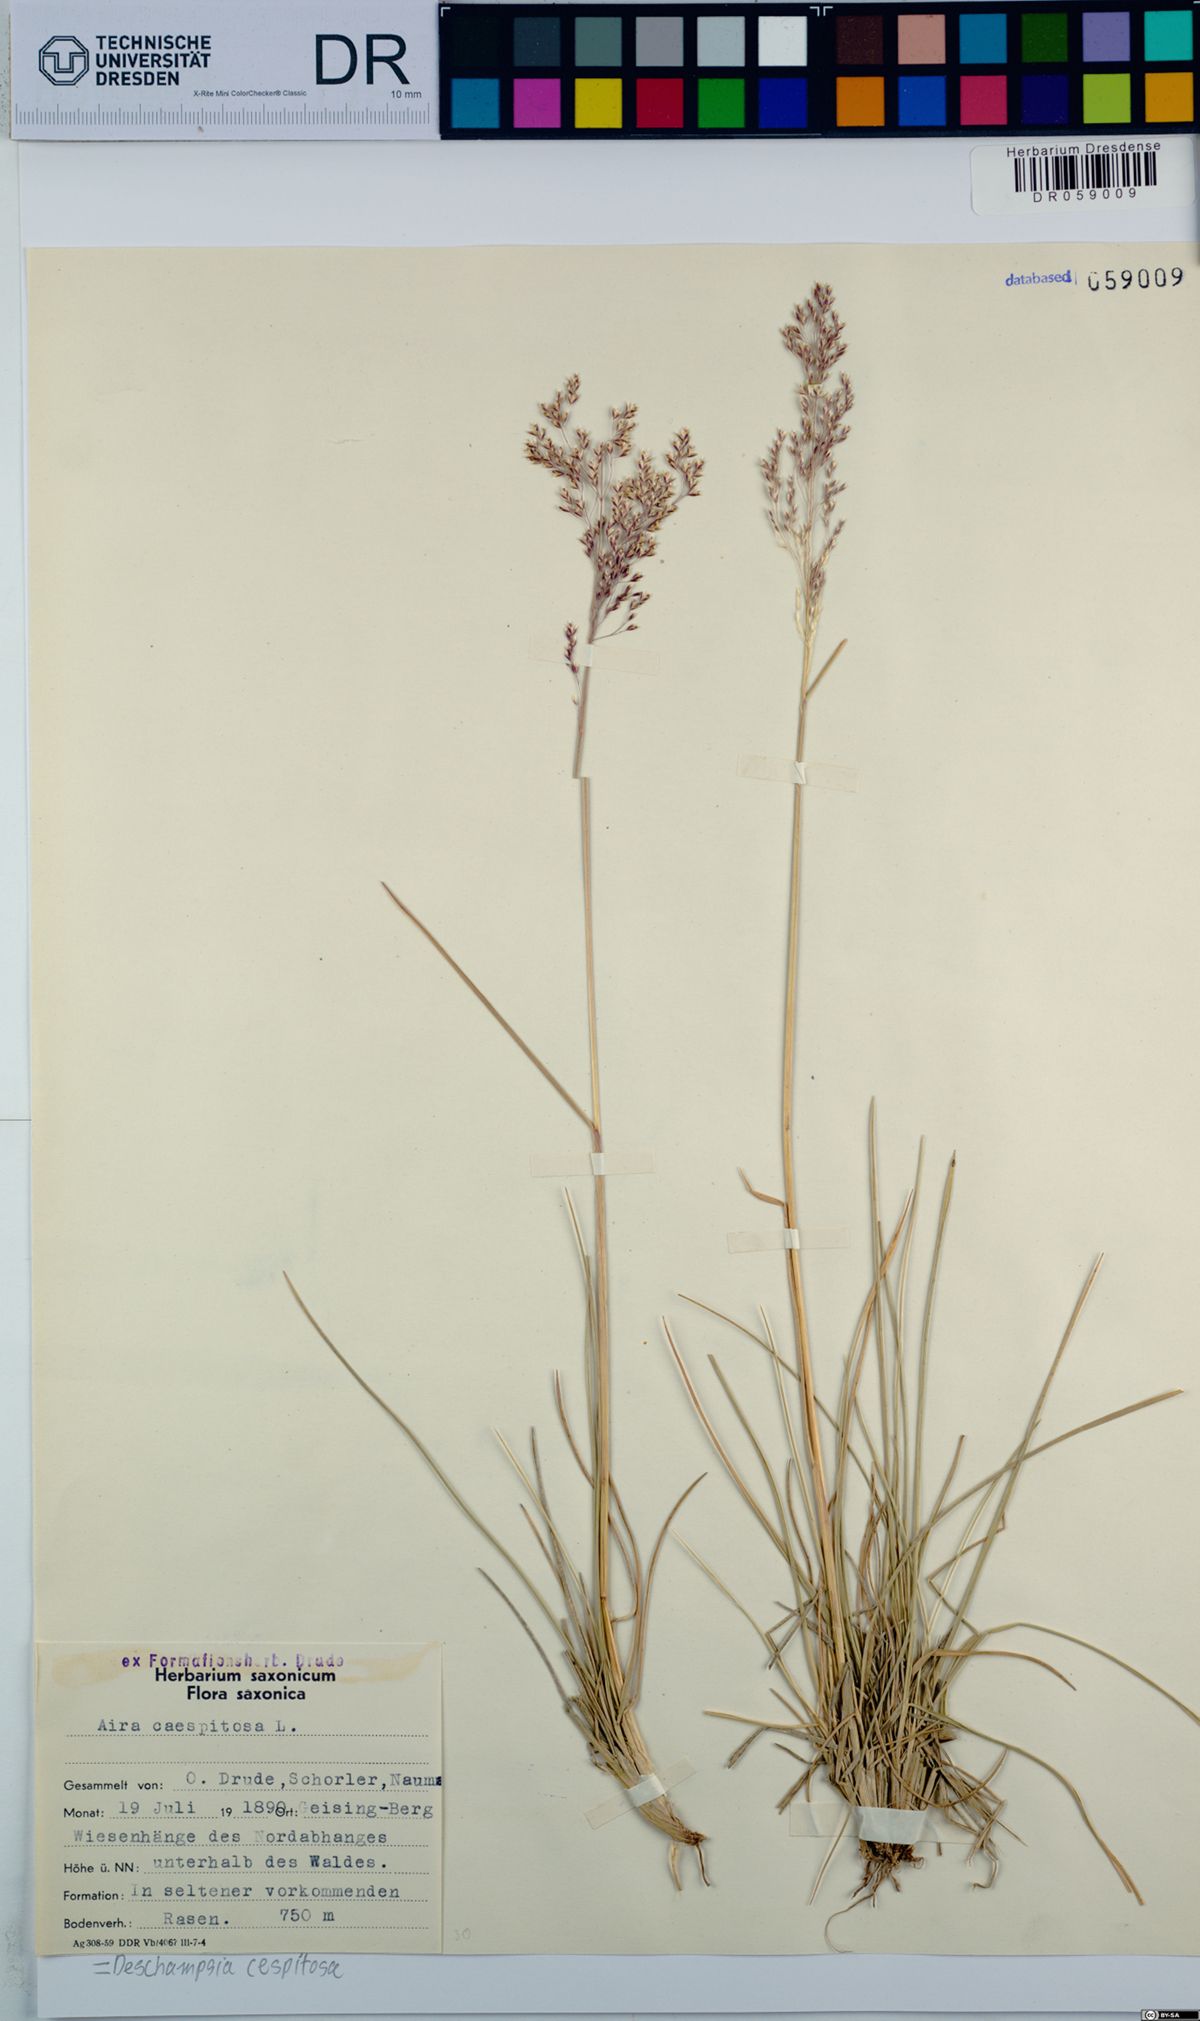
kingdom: Plantae
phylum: Tracheophyta
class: Liliopsida
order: Poales
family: Poaceae
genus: Deschampsia
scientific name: Deschampsia cespitosa
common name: Tufted hair-grass
